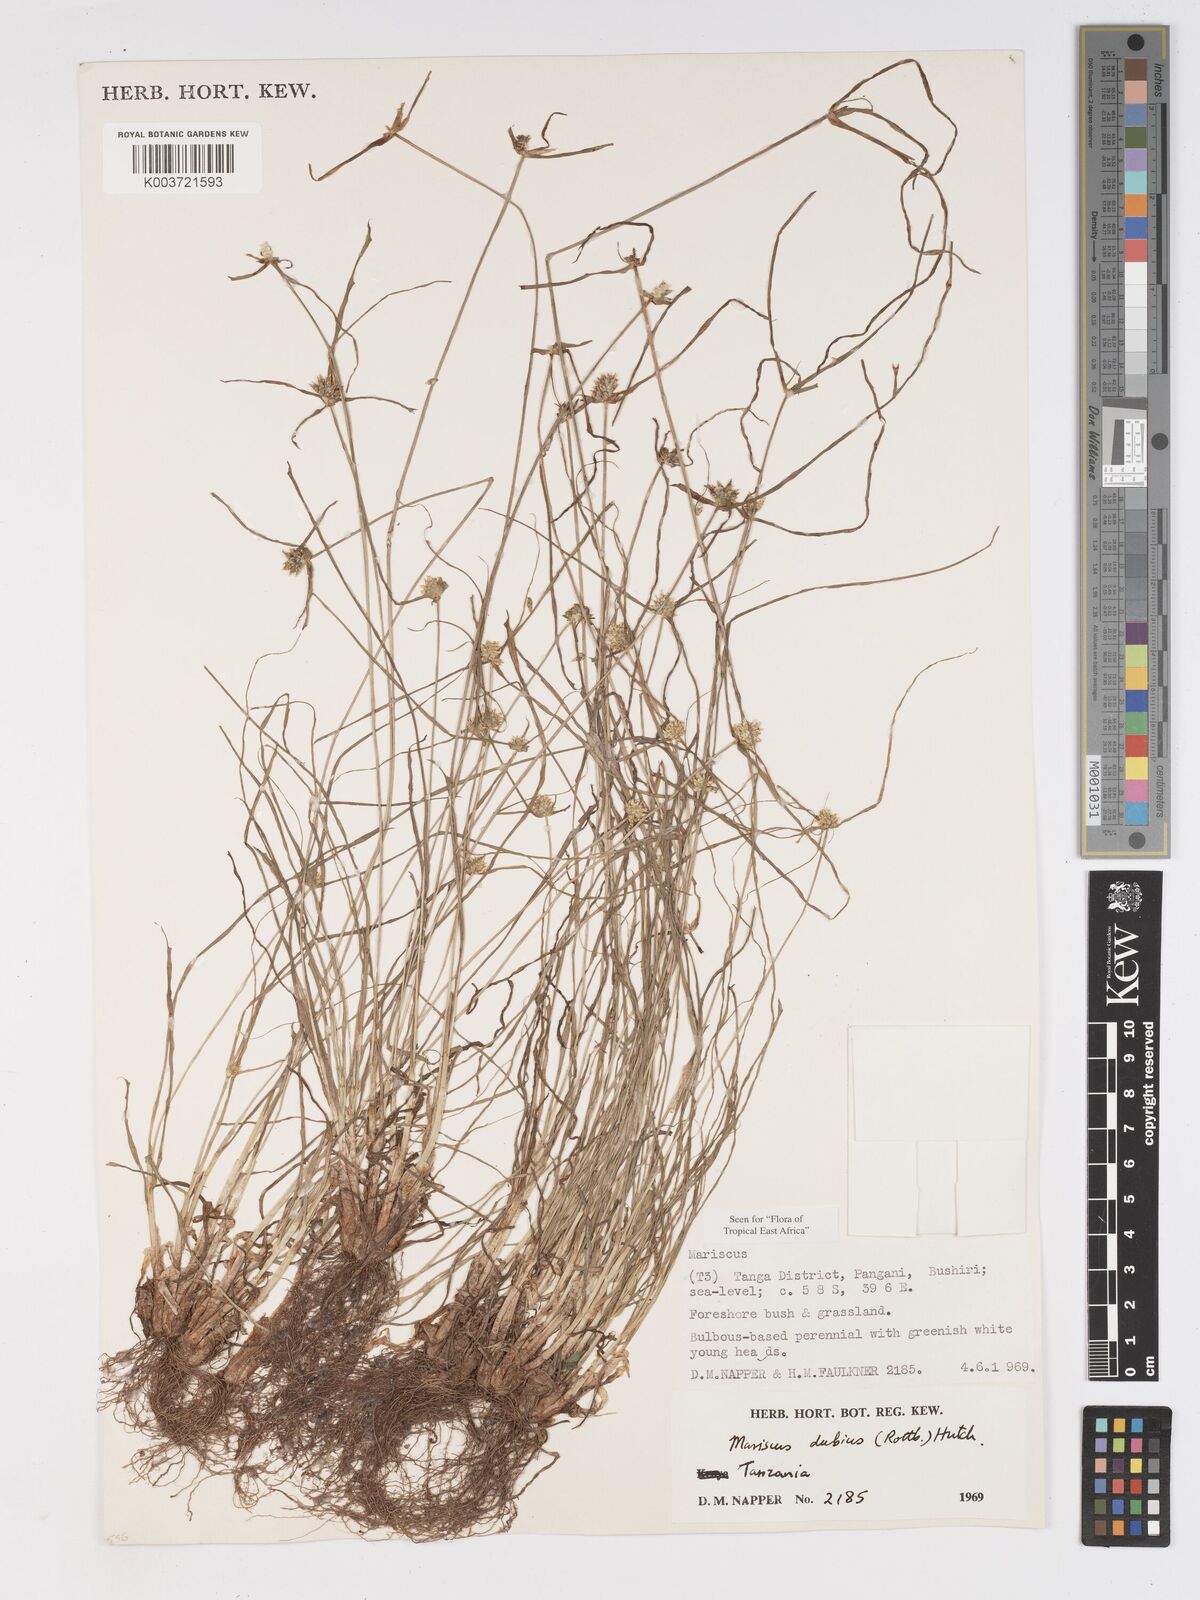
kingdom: Plantae
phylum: Tracheophyta
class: Liliopsida
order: Poales
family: Cyperaceae
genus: Cyperus
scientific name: Cyperus dubius
